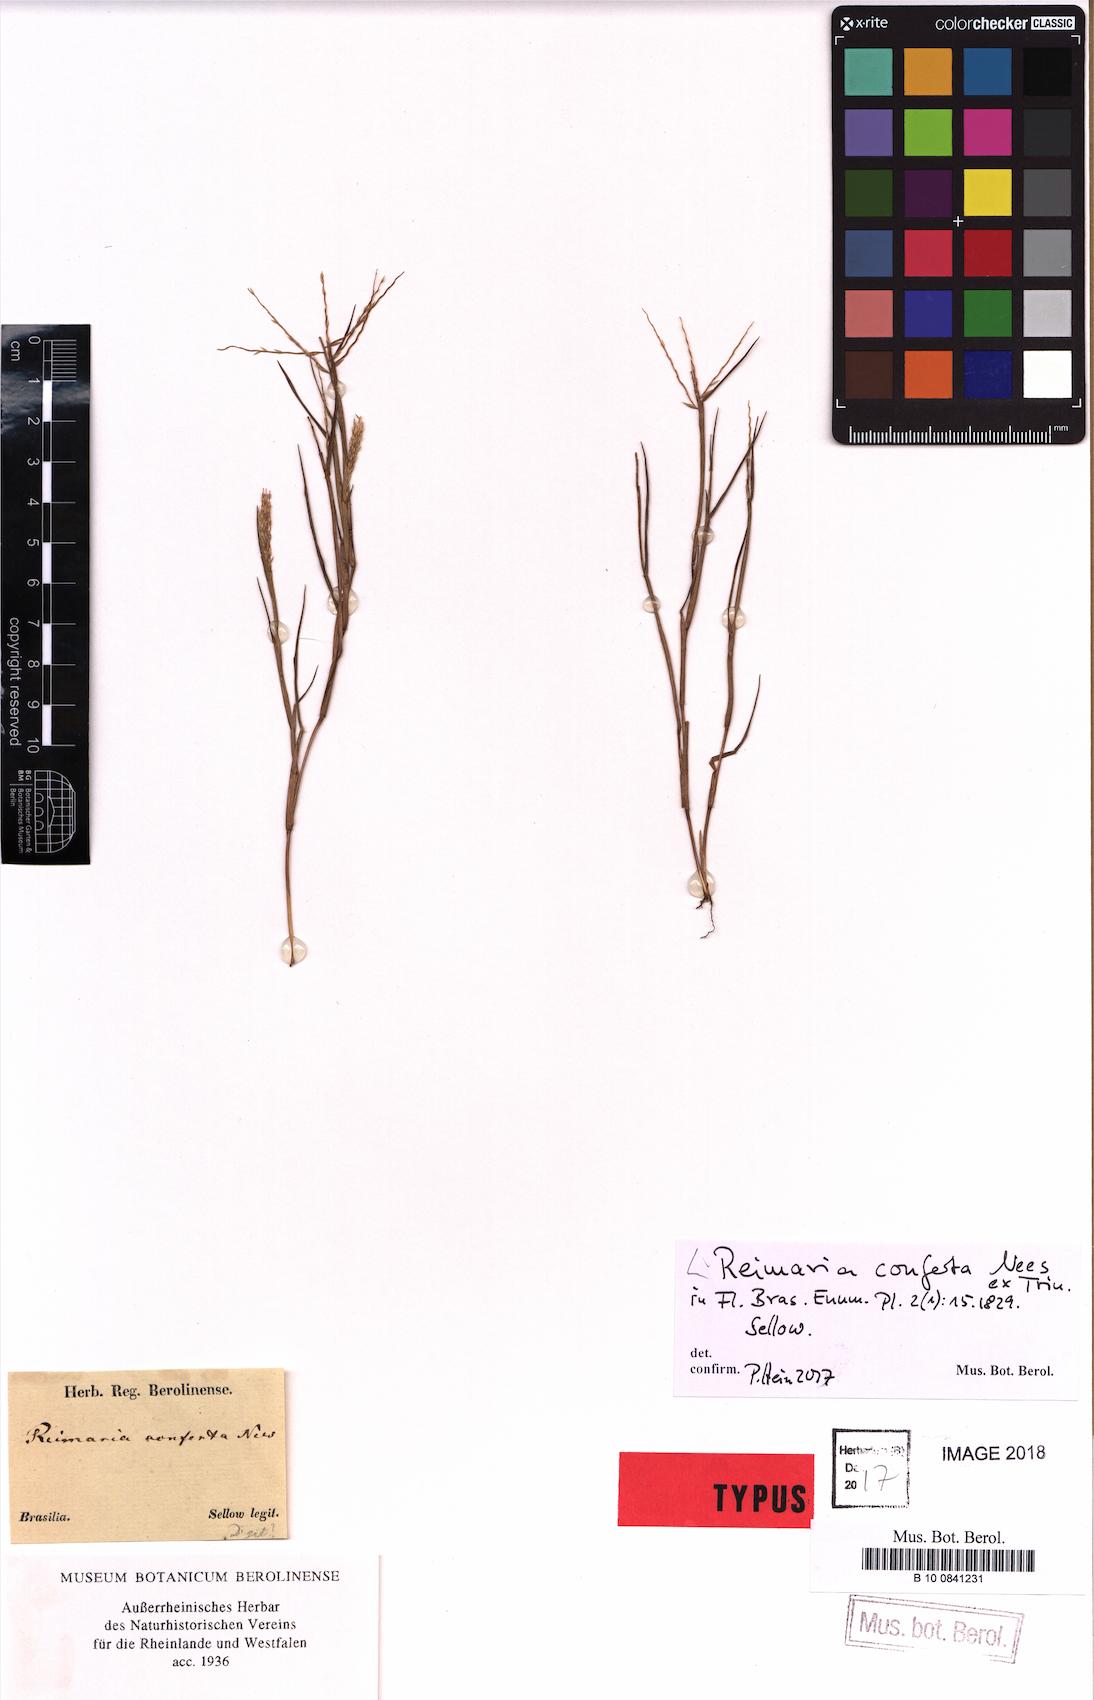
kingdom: Plantae
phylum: Tracheophyta
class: Liliopsida
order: Poales
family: Poaceae
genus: Paspalum
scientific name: Paspalum stagnophilum
